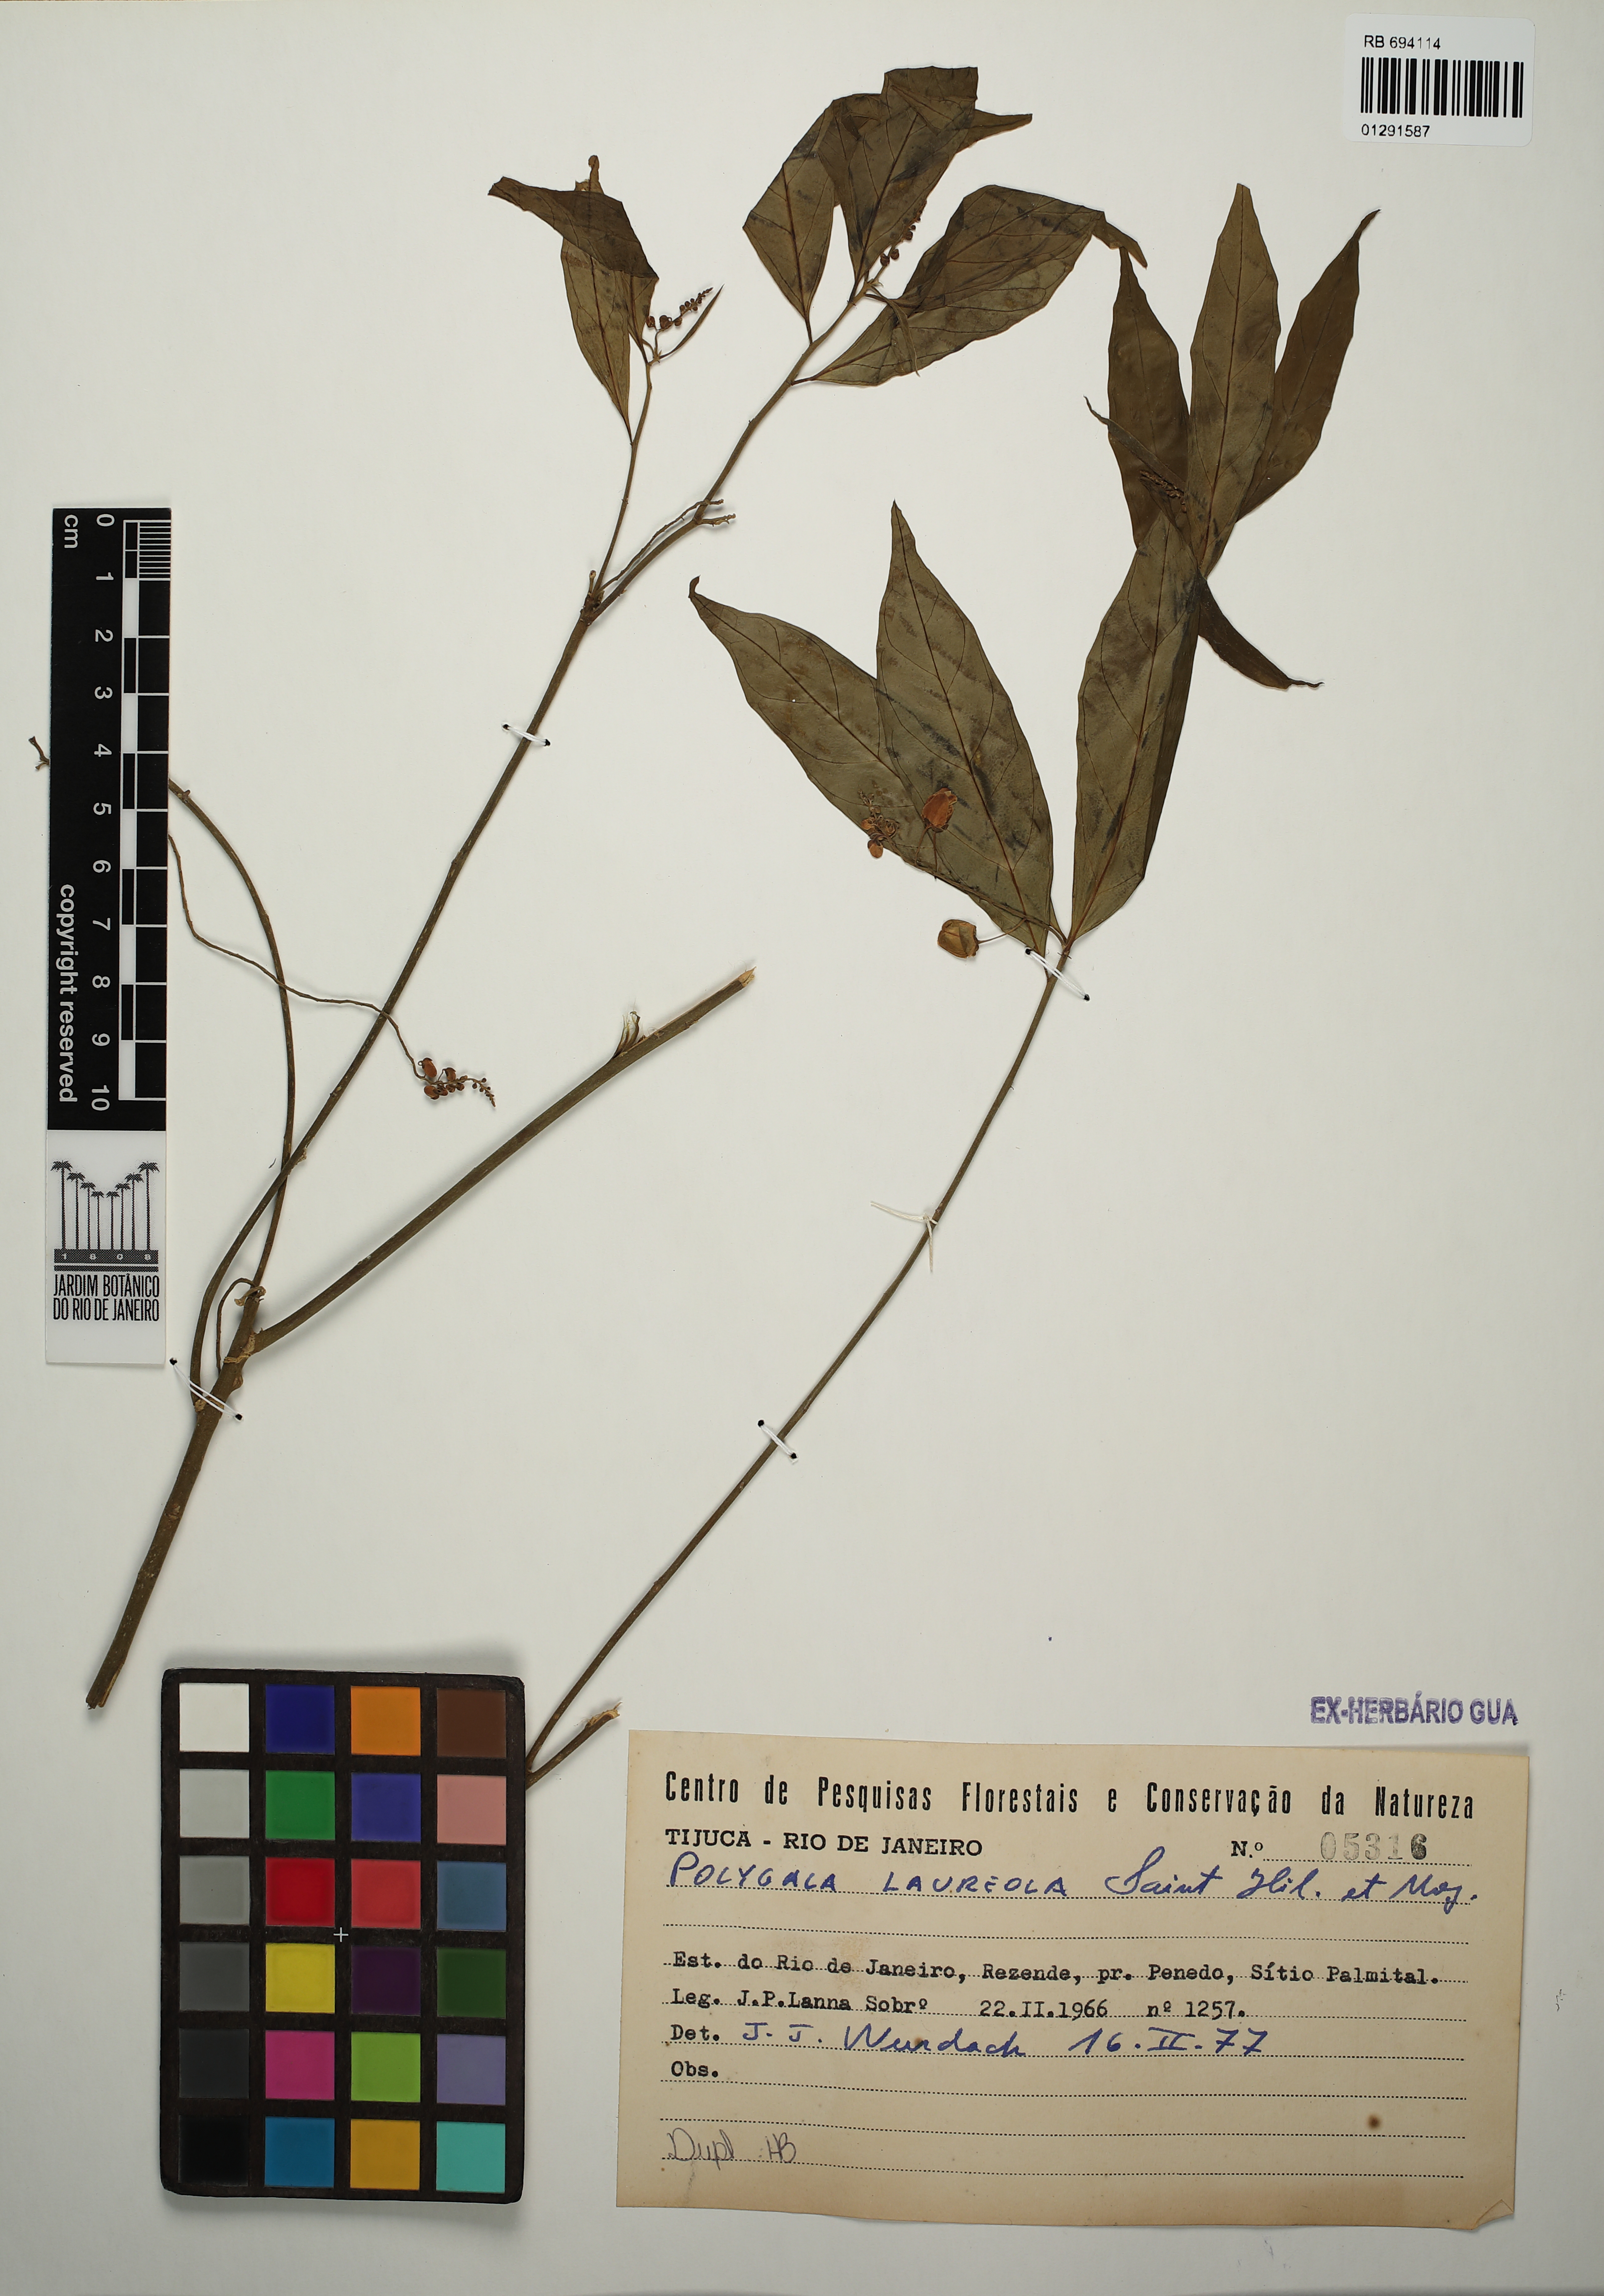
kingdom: Plantae
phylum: Tracheophyta
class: Magnoliopsida
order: Fabales
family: Polygalaceae
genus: Caamembeca
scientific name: Caamembeca salicifolia
